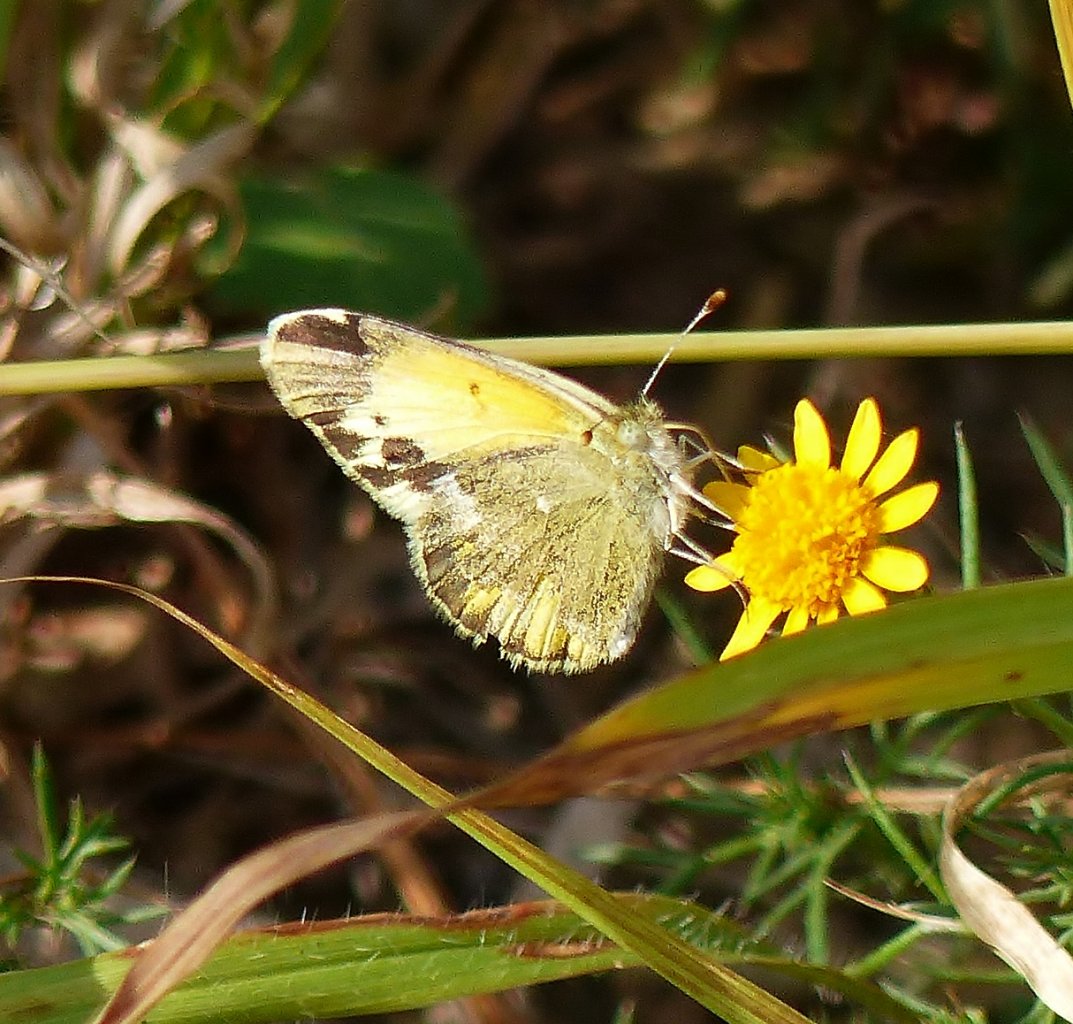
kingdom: Animalia
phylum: Arthropoda
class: Insecta
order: Lepidoptera
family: Pieridae
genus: Nathalis
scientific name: Nathalis iole
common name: Dainty Sulphur
